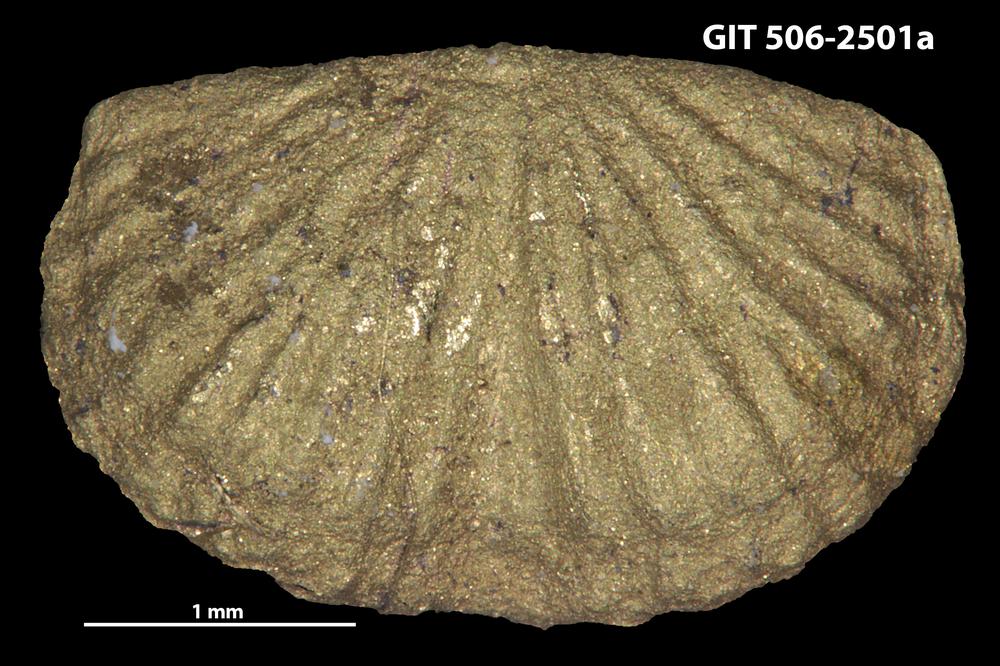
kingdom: Animalia
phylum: Brachiopoda
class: Rhynchonellata
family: Skenidiidae
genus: Skenidioides
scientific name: Skenidioides petrasi
